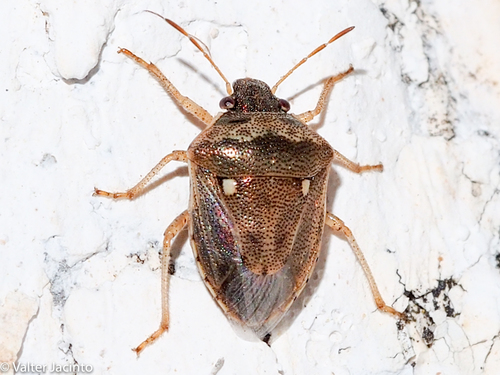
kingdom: Animalia
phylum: Arthropoda
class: Insecta
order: Hemiptera
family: Pentatomidae
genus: Eysarcoris
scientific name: Eysarcoris ventralis
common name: White-spotted stink bug
